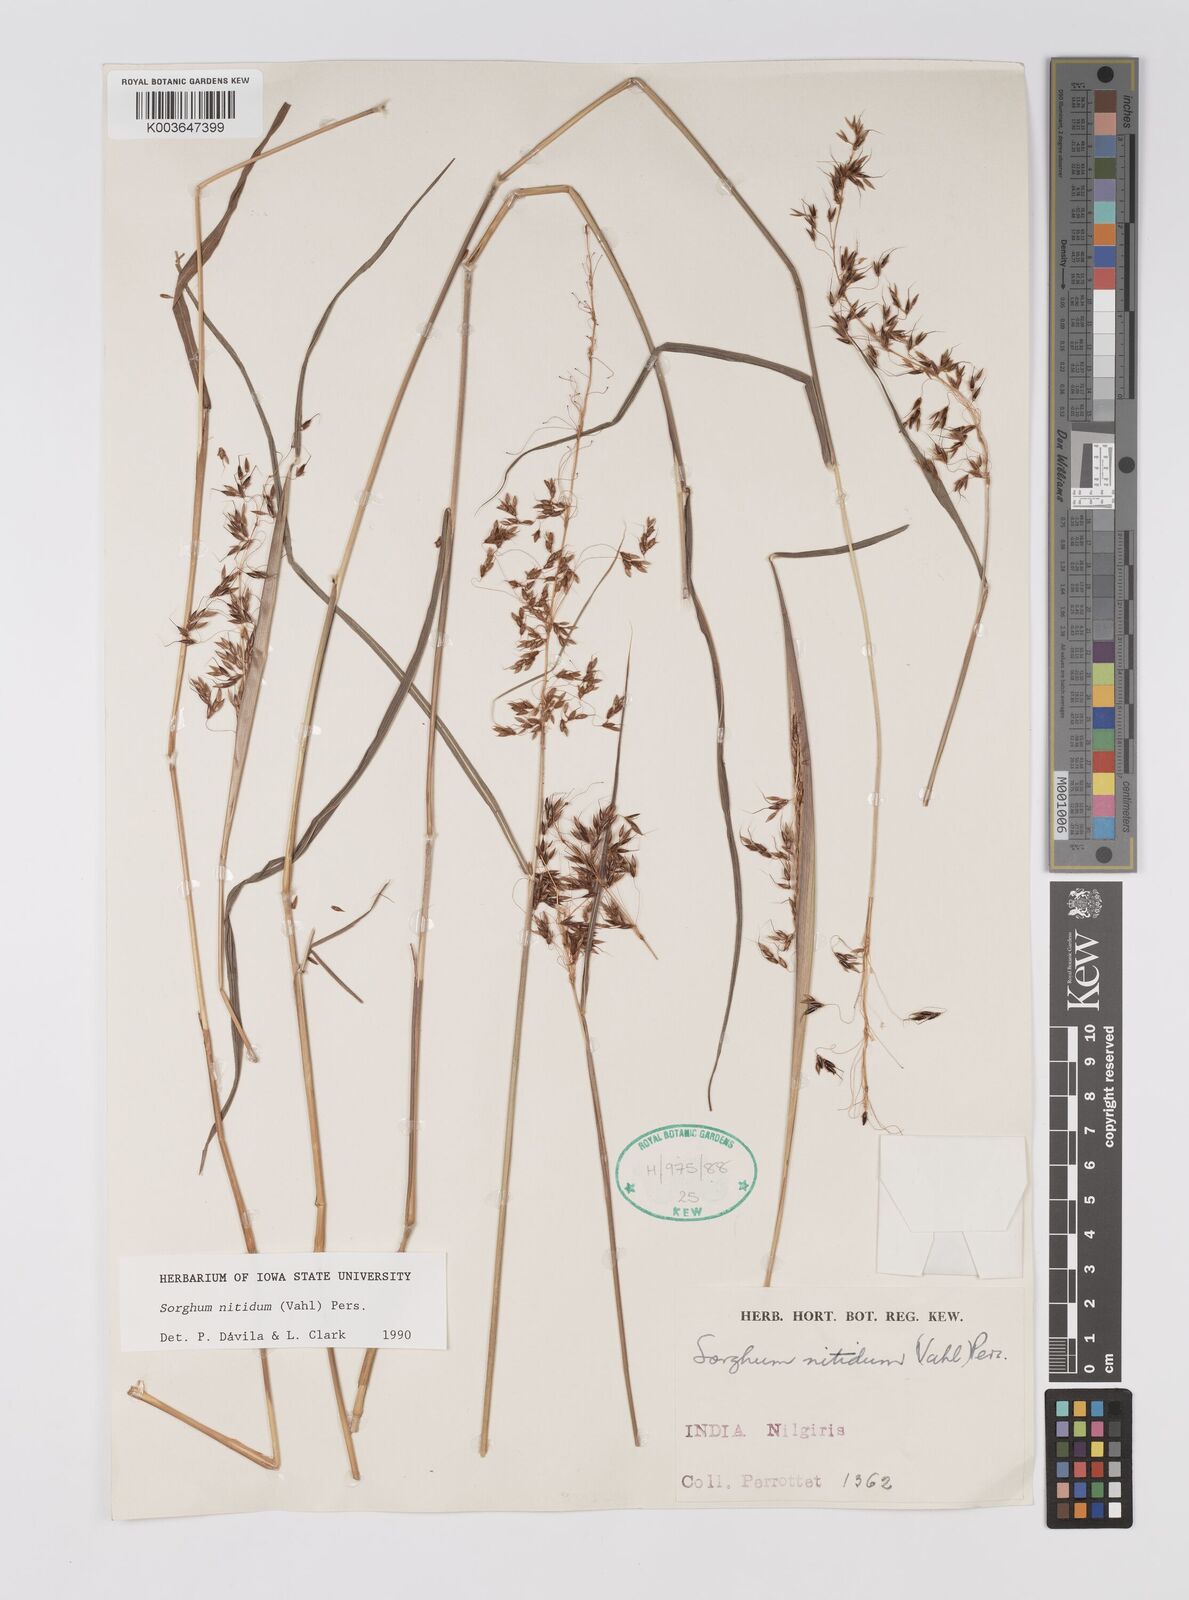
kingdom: Plantae
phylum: Tracheophyta
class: Liliopsida
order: Poales
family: Poaceae
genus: Sorghum
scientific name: Sorghum nitidum
